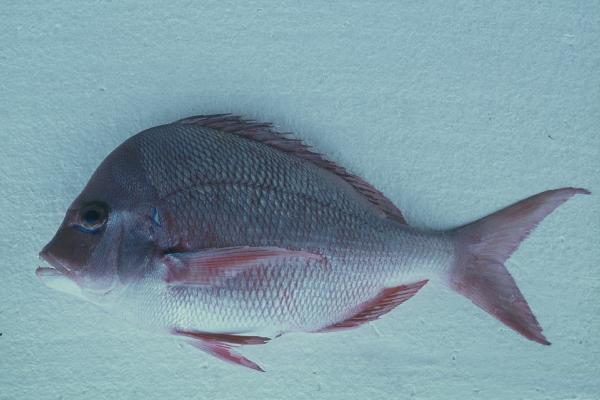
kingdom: Animalia
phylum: Chordata
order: Perciformes
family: Sparidae
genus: Chrysoblephus
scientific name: Chrysoblephus puniceus
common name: Slinger seabream
